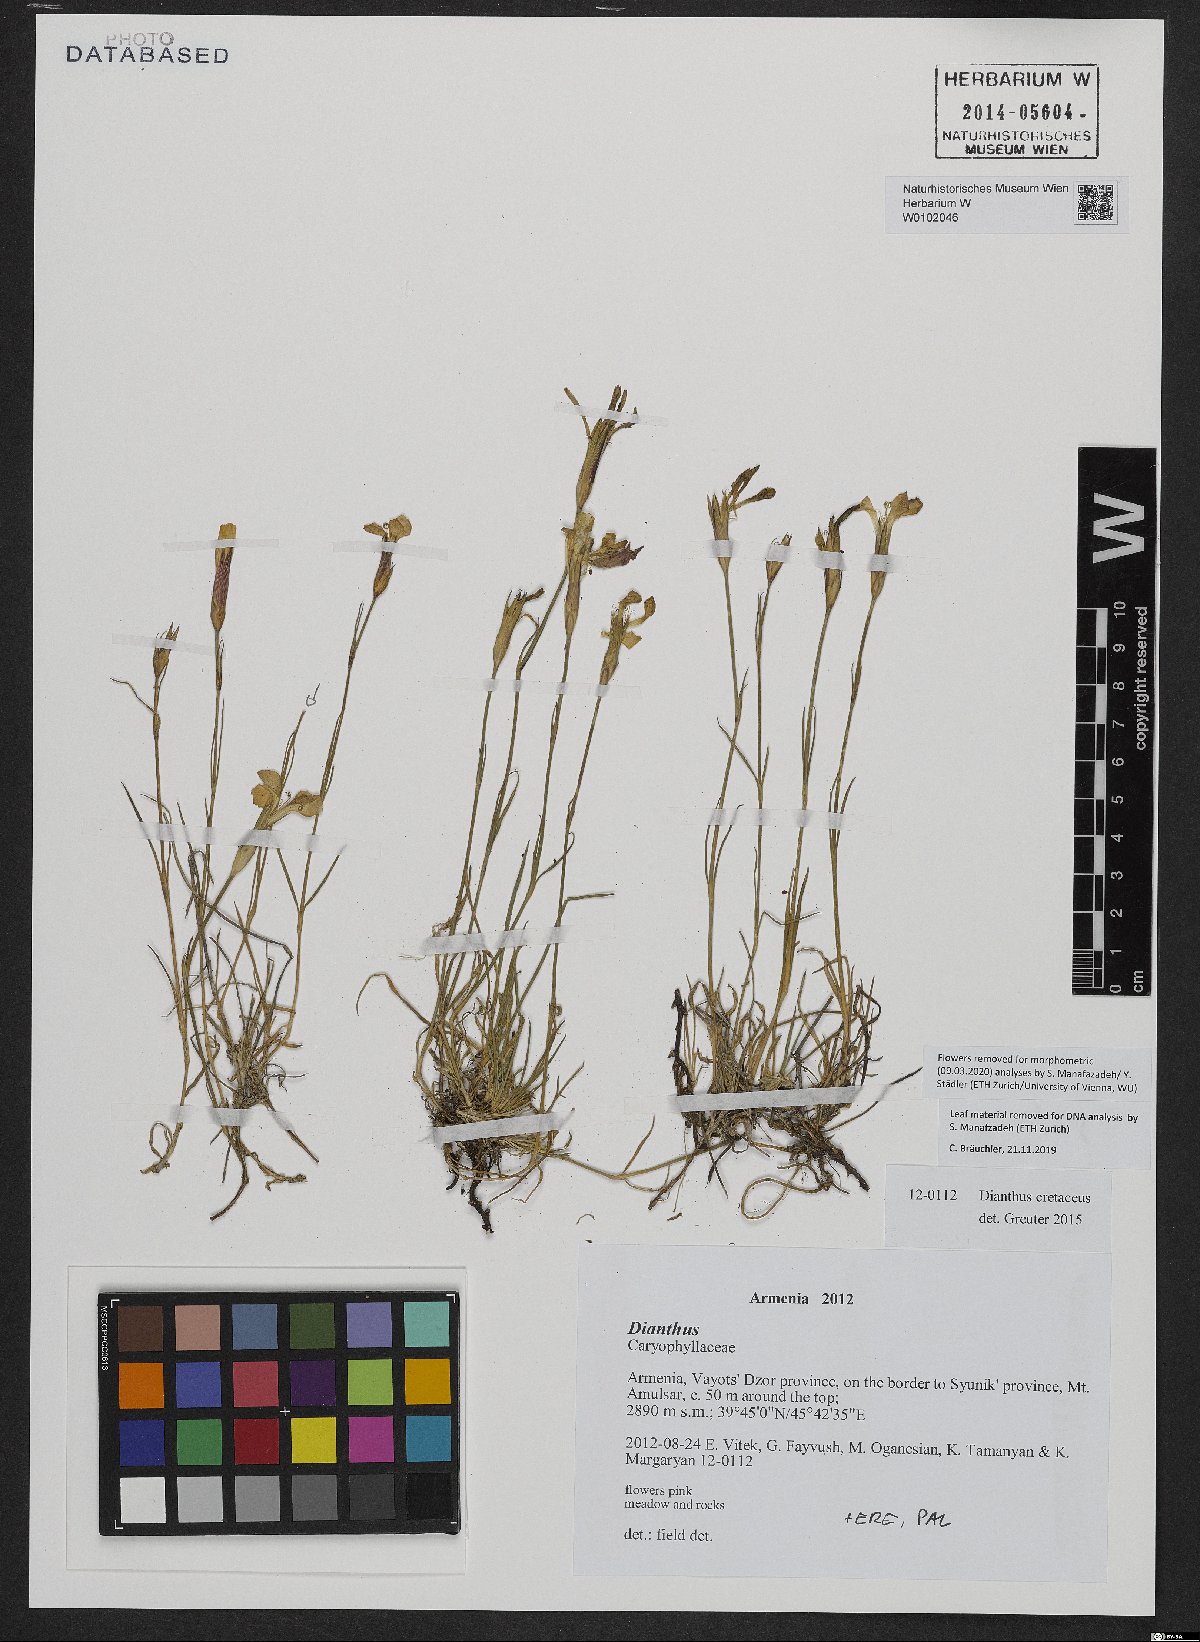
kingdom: Plantae
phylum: Tracheophyta
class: Magnoliopsida
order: Caryophyllales
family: Caryophyllaceae
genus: Dianthus
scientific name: Dianthus cretaceus
